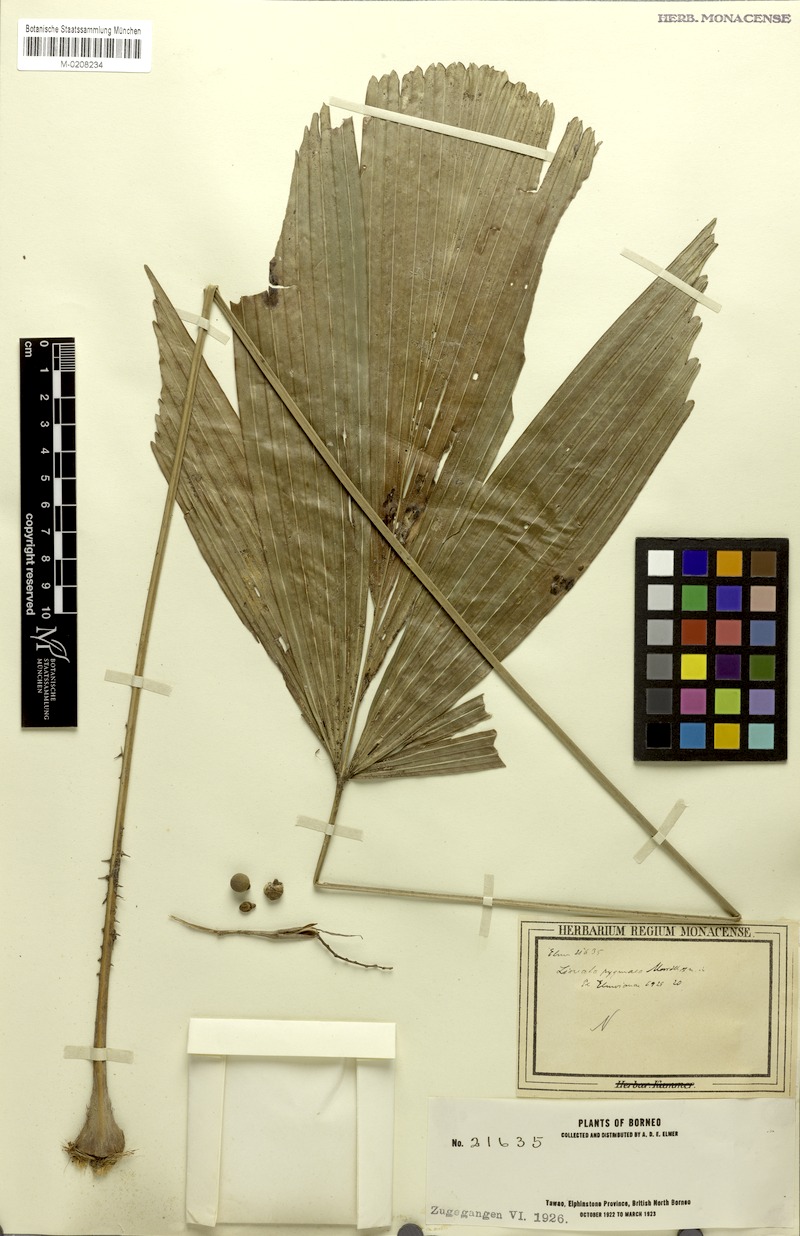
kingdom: Plantae
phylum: Tracheophyta
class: Liliopsida
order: Arecales
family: Arecaceae
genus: Licuala
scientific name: Licuala triphylla
